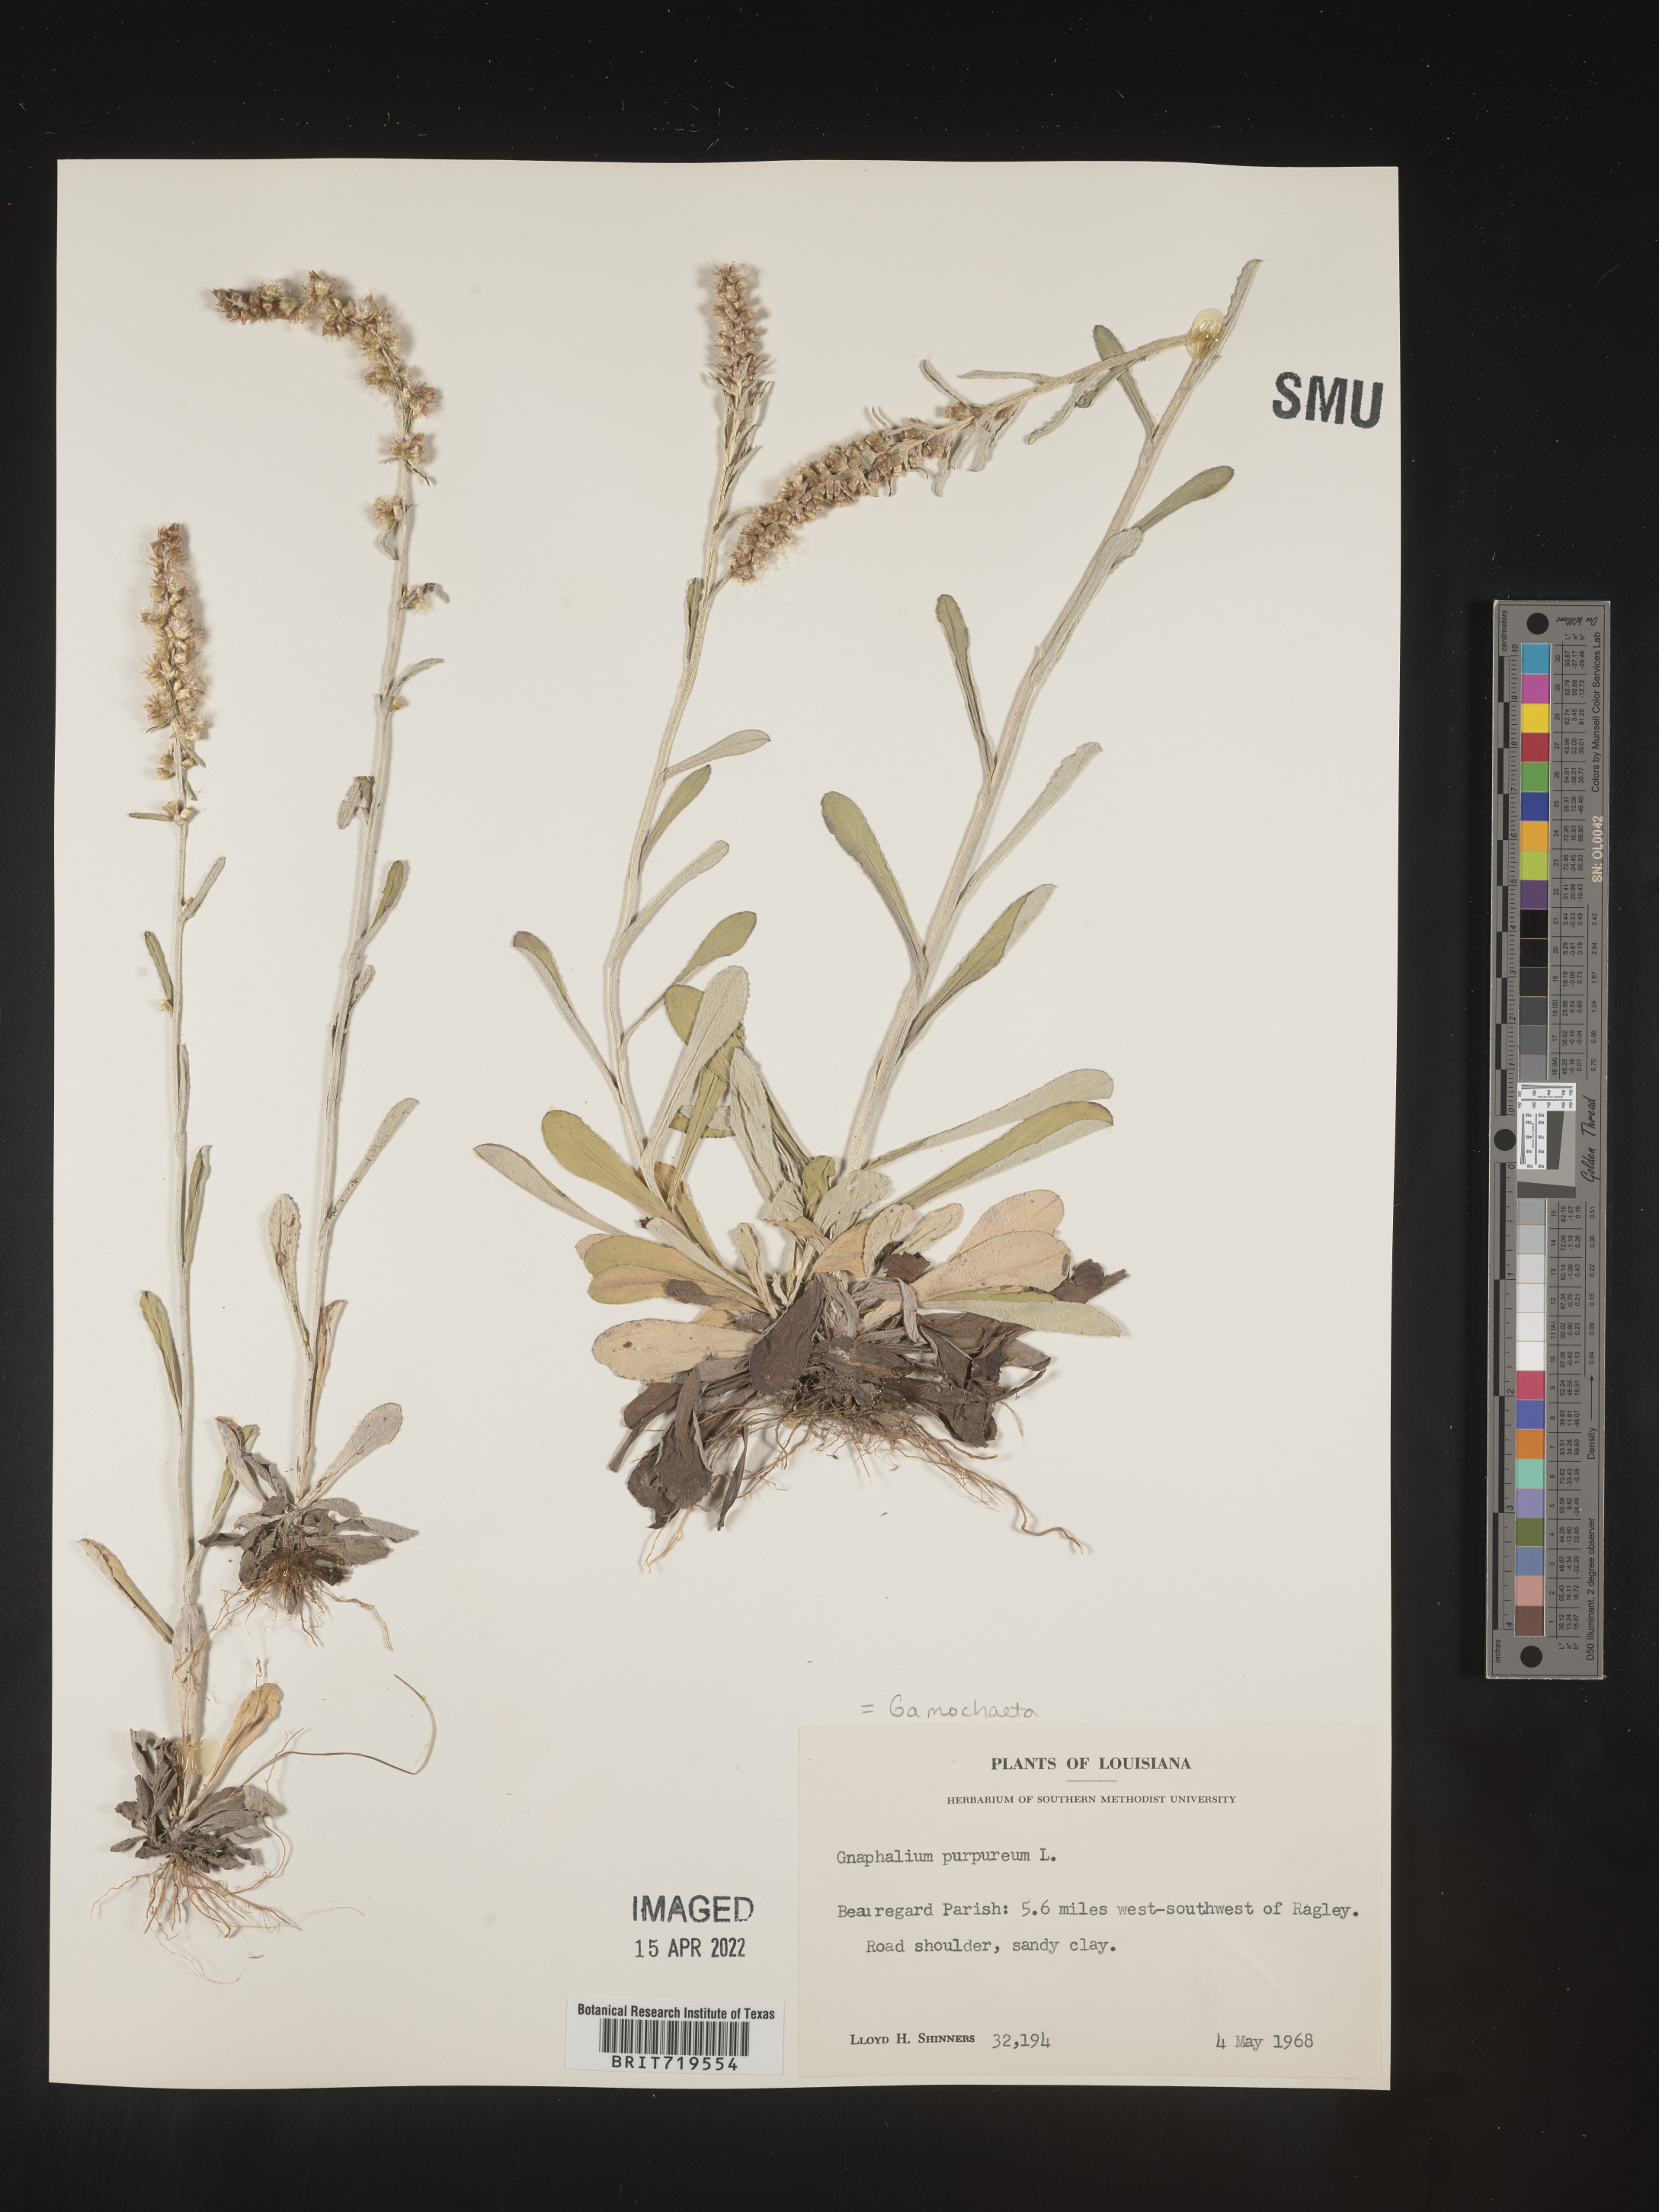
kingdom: Plantae
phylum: Tracheophyta
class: Magnoliopsida
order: Asterales
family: Asteraceae
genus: Gamochaeta
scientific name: Gamochaeta argyrinea
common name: Silvery cudweed
